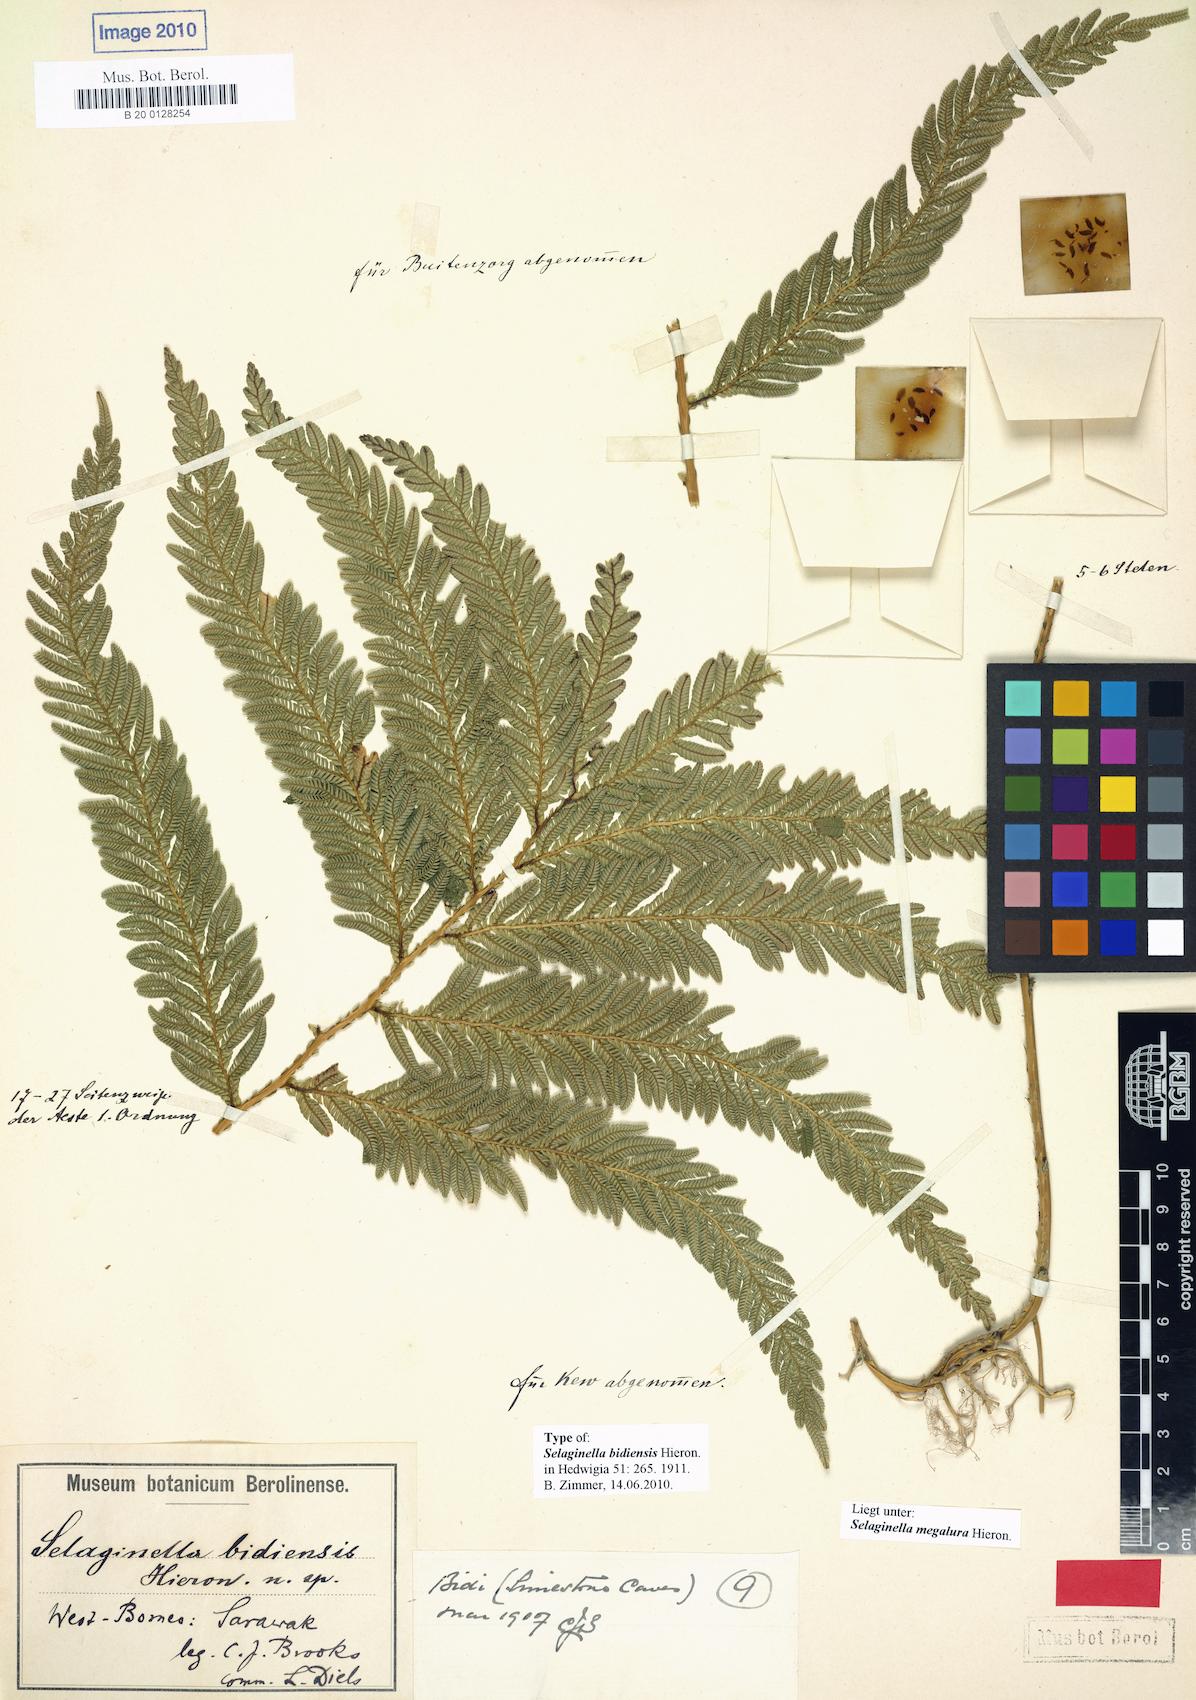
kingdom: Plantae
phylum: Tracheophyta
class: Lycopodiopsida
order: Selaginellales
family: Selaginellaceae
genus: Selaginella
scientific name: Selaginella megalura
